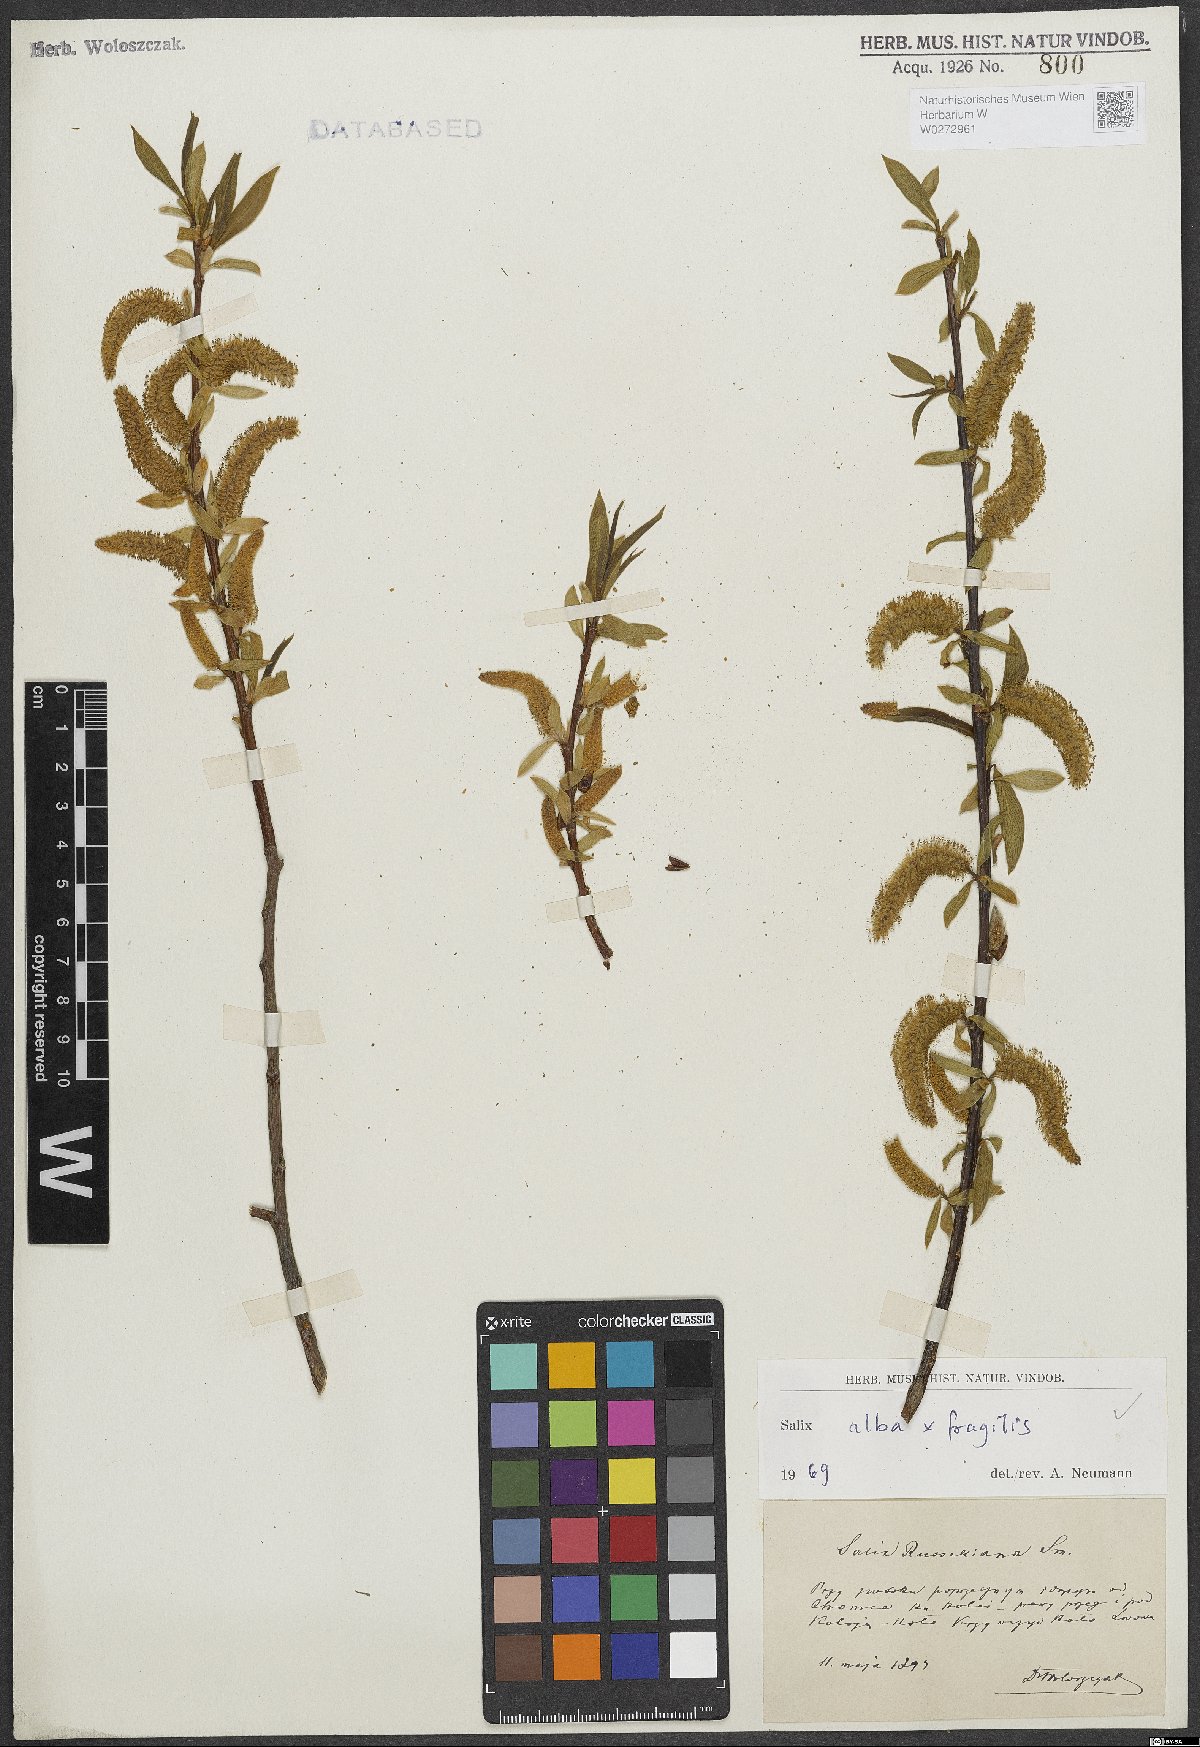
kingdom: Plantae
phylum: Tracheophyta
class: Magnoliopsida
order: Malpighiales
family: Salicaceae
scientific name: Salicaceae
